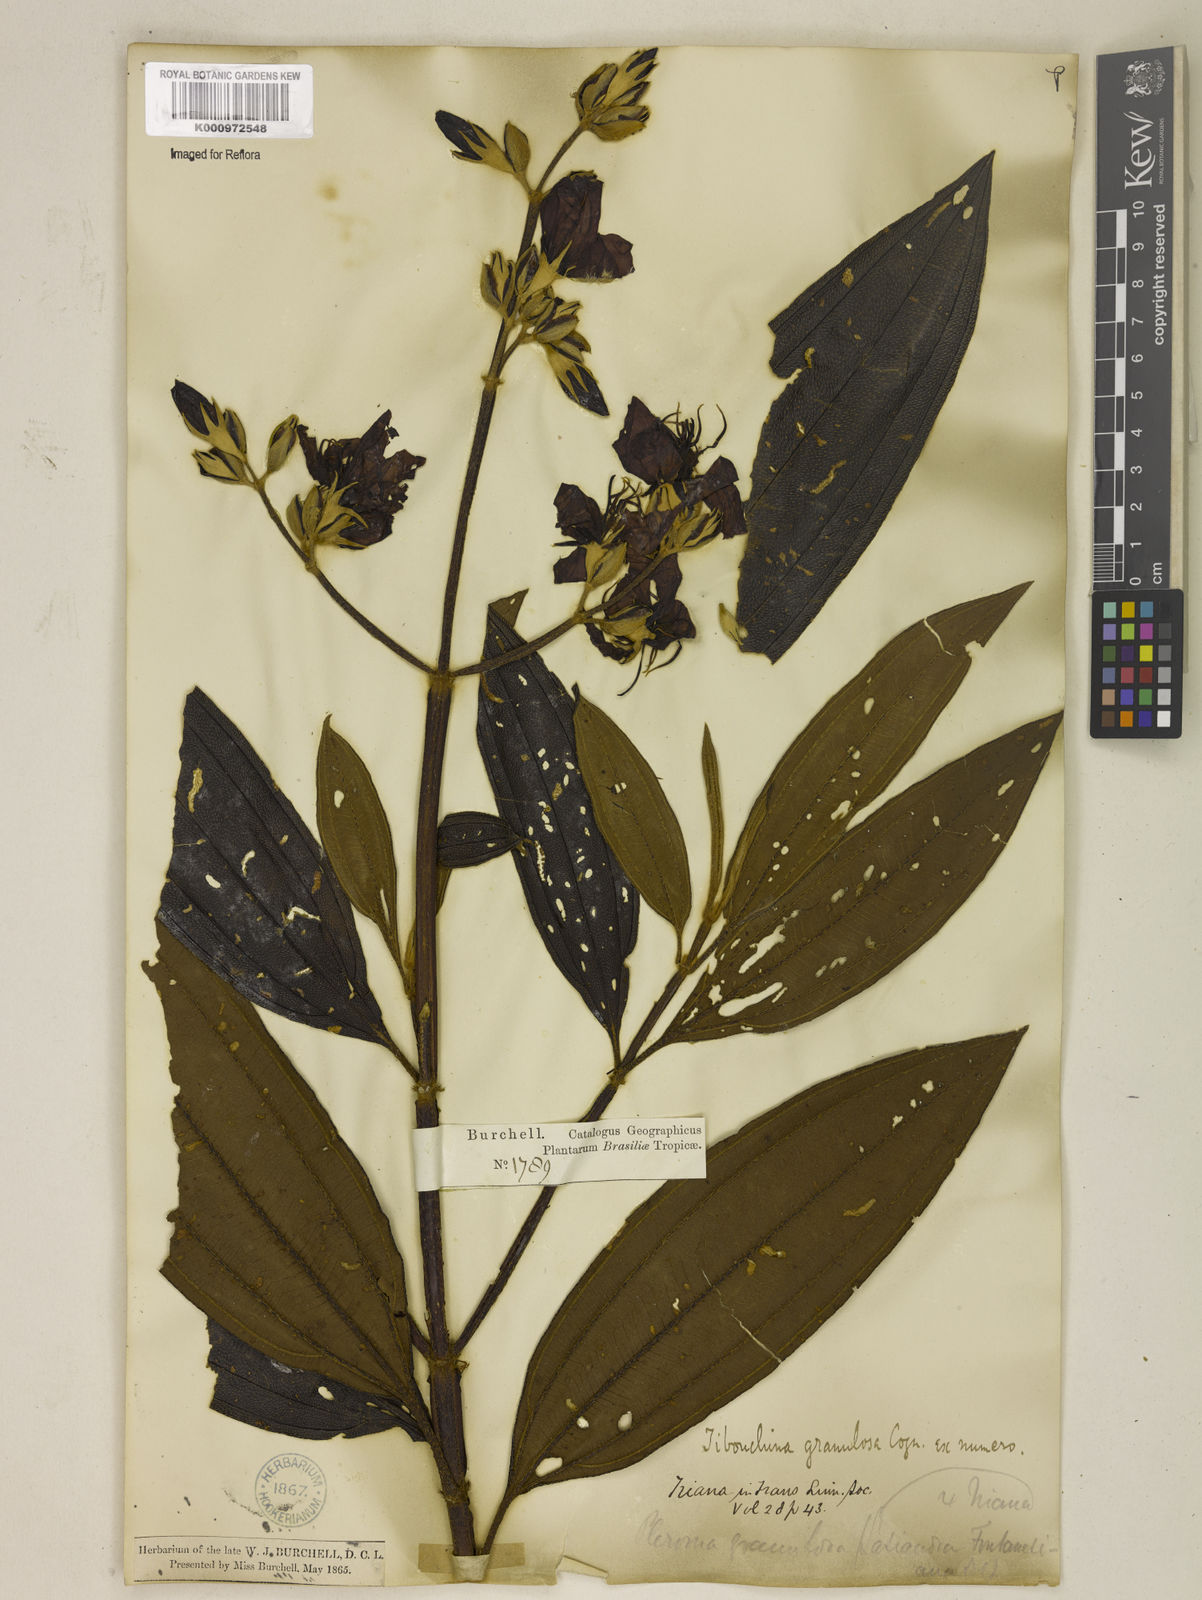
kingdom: Plantae
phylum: Tracheophyta
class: Magnoliopsida
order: Myrtales
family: Melastomataceae
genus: Pleroma
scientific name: Pleroma granulosum
